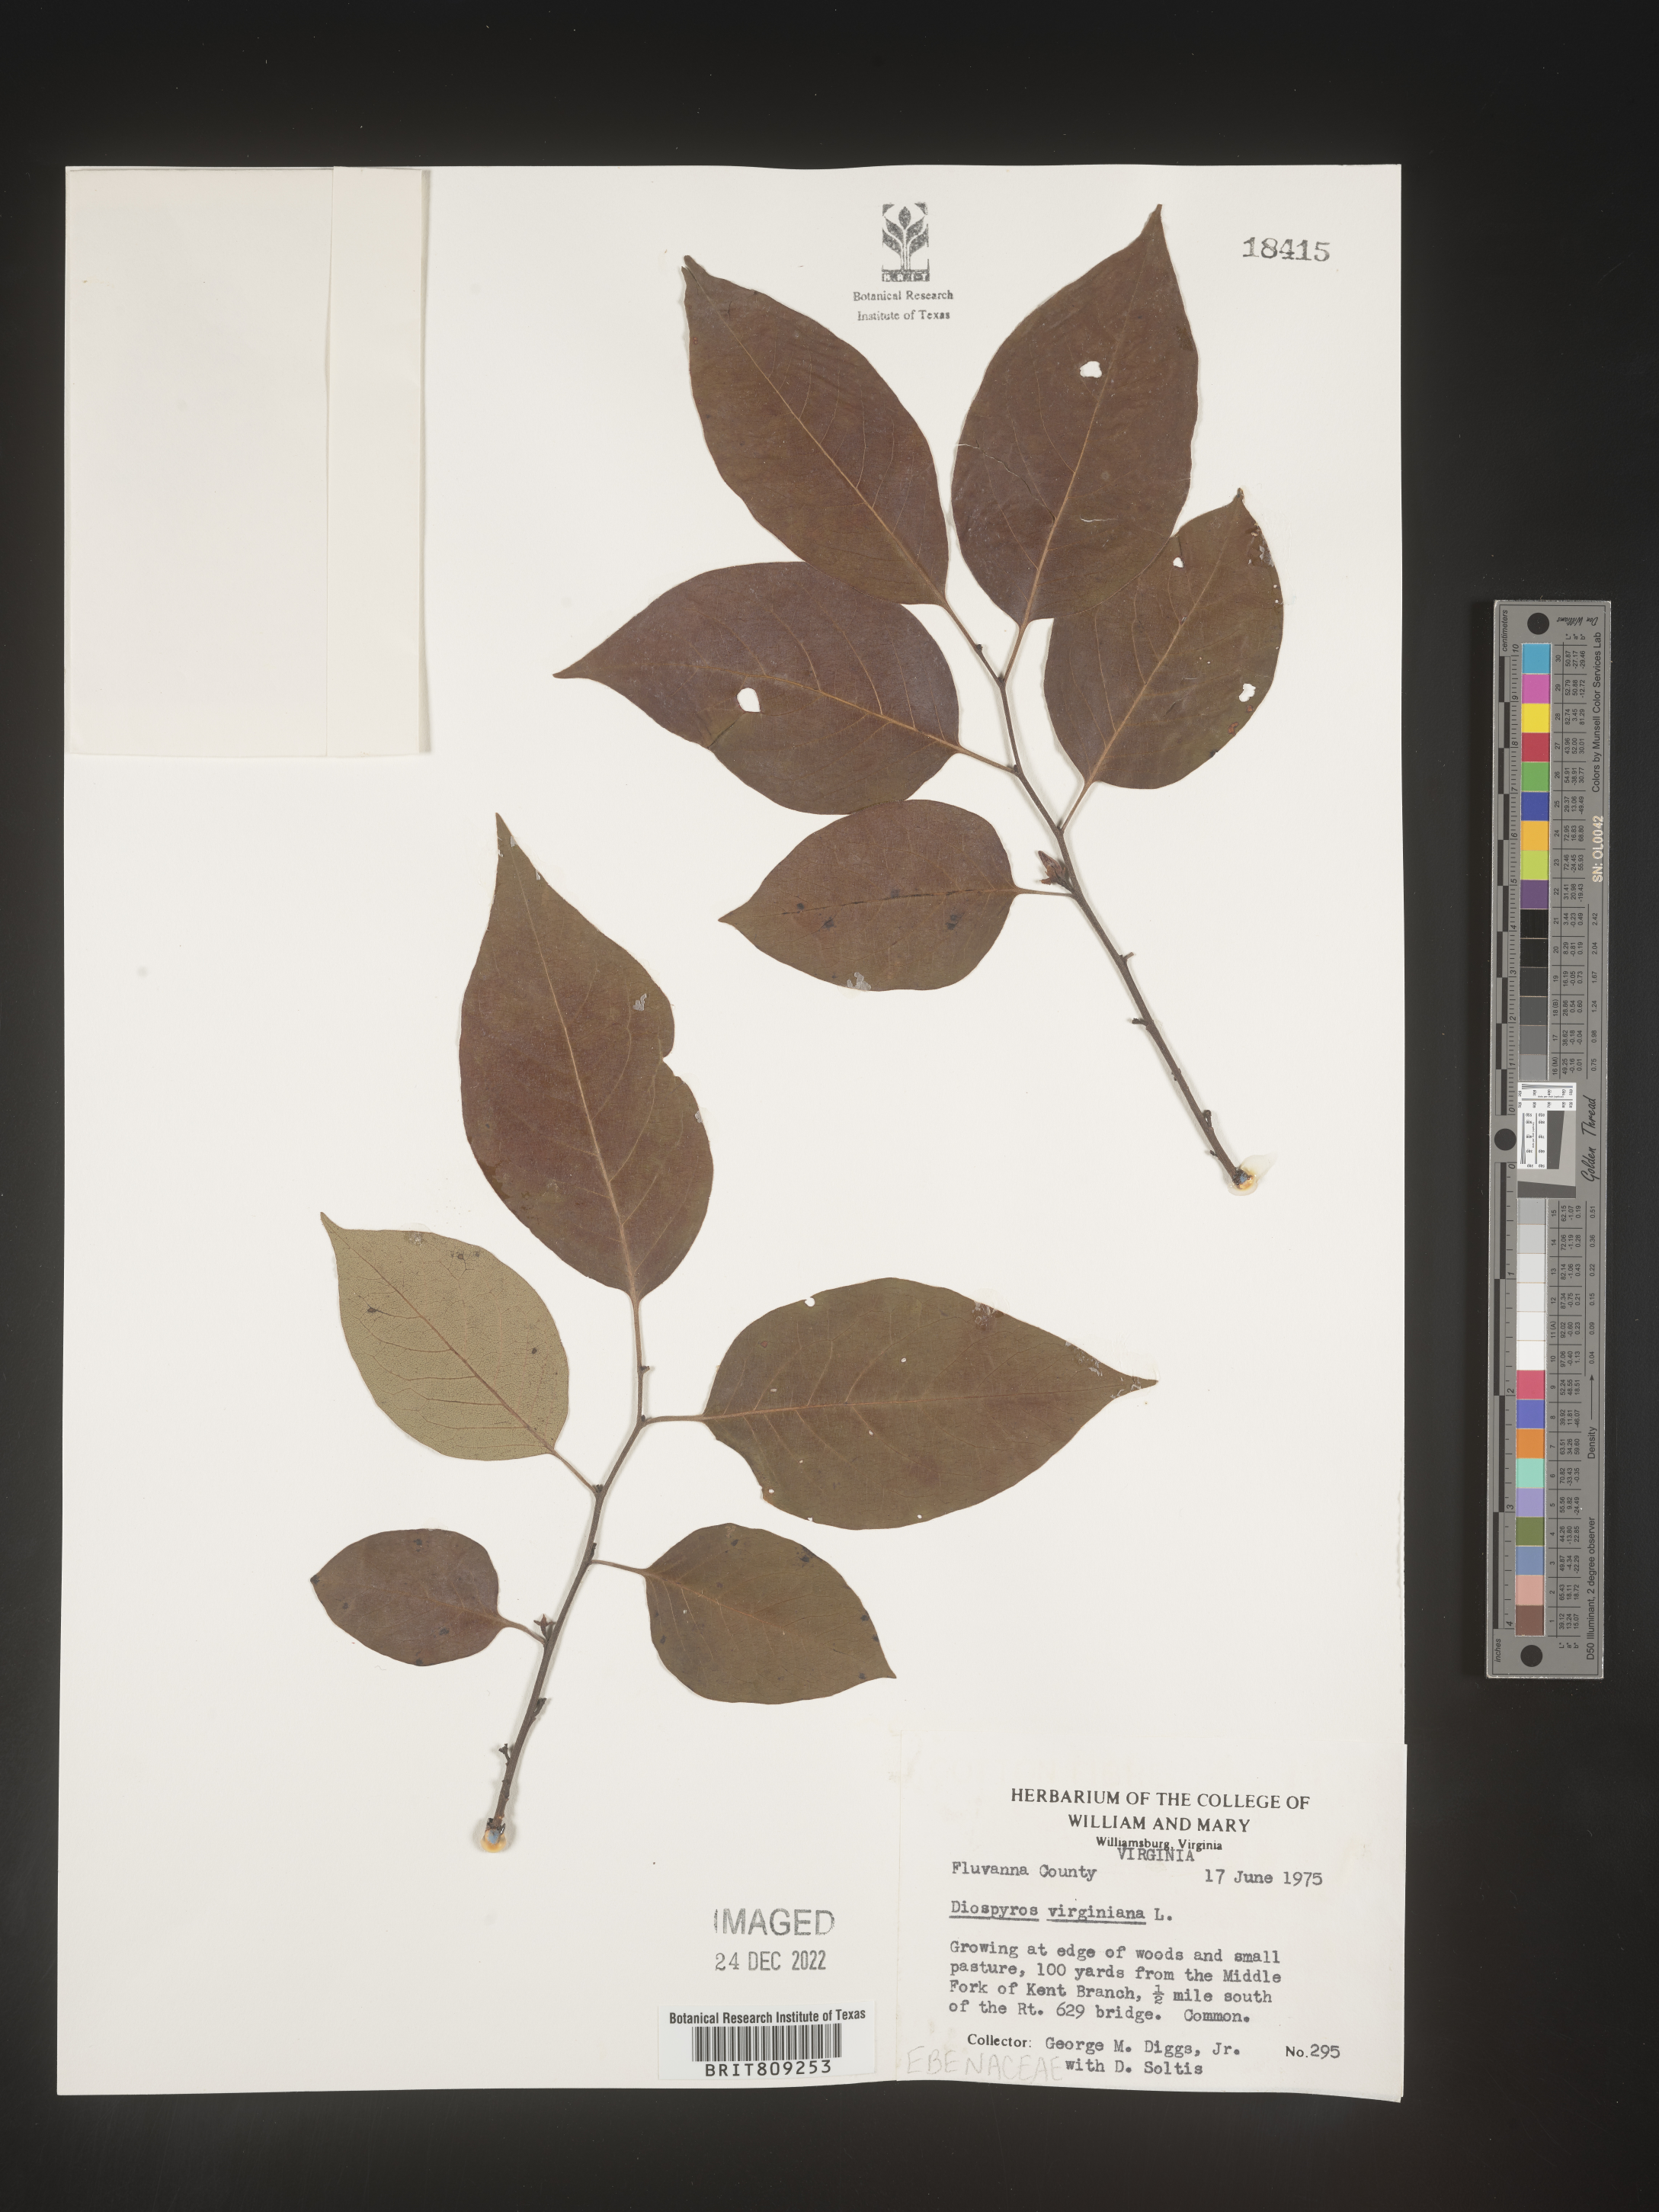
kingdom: Plantae
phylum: Tracheophyta
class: Magnoliopsida
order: Ericales
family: Ebenaceae
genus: Diospyros
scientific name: Diospyros virginiana
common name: Persimmon
